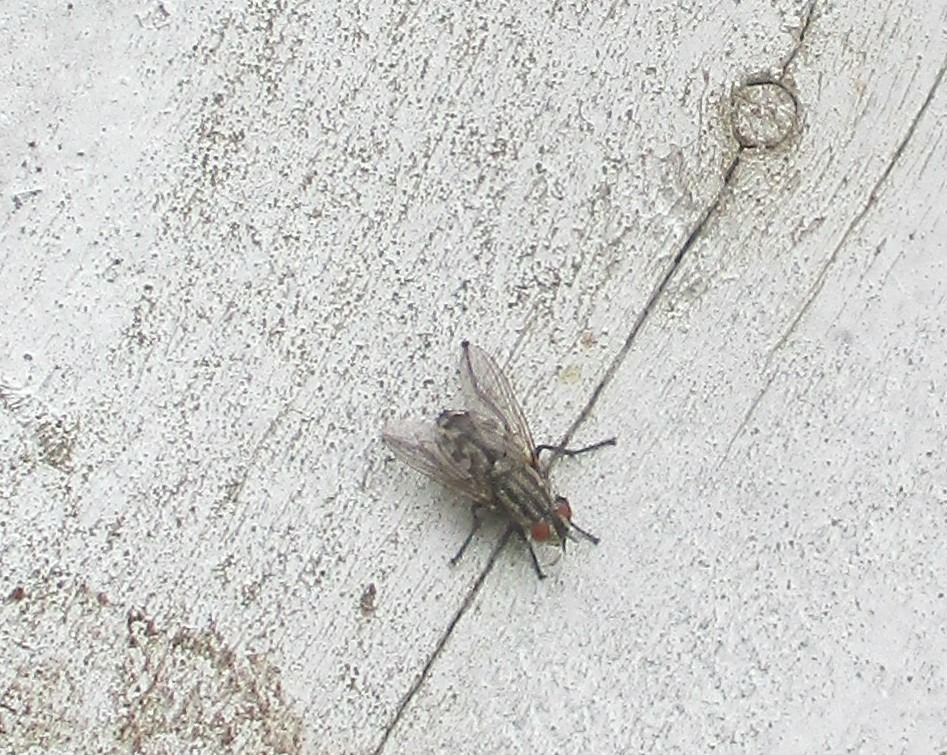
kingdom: Animalia
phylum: Arthropoda
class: Insecta
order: Diptera
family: Sarcophagidae
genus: Sarcophaga
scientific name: Sarcophaga
